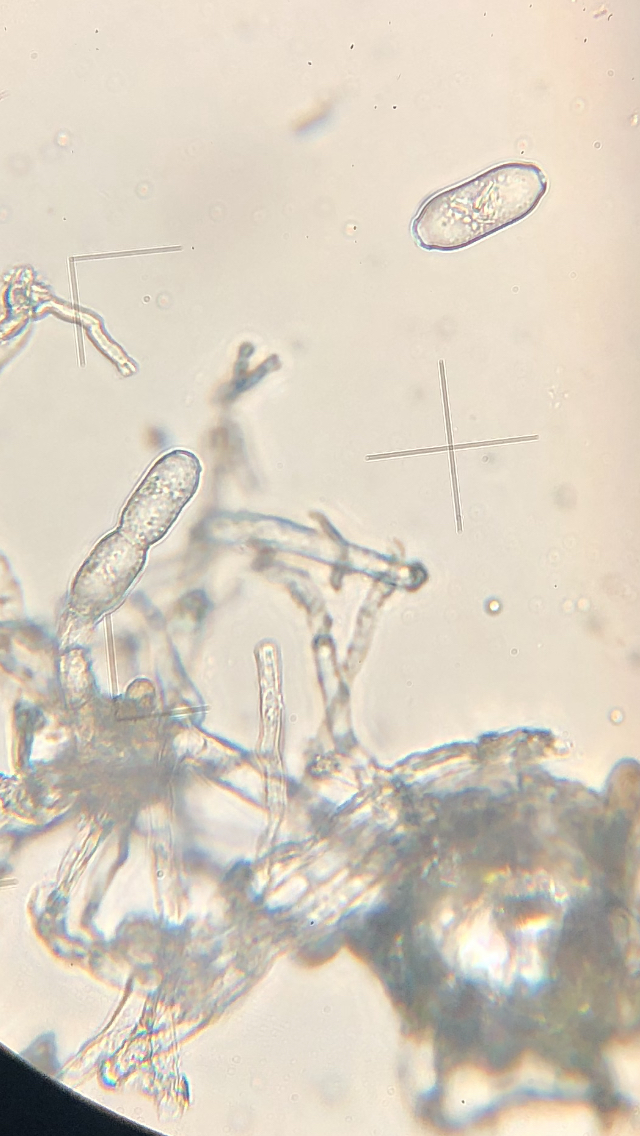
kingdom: Fungi
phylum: Ascomycota
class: Leotiomycetes
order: Helotiales
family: Erysiphaceae
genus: Sawadaea
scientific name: Sawadaea bicornis
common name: Maple mildew
